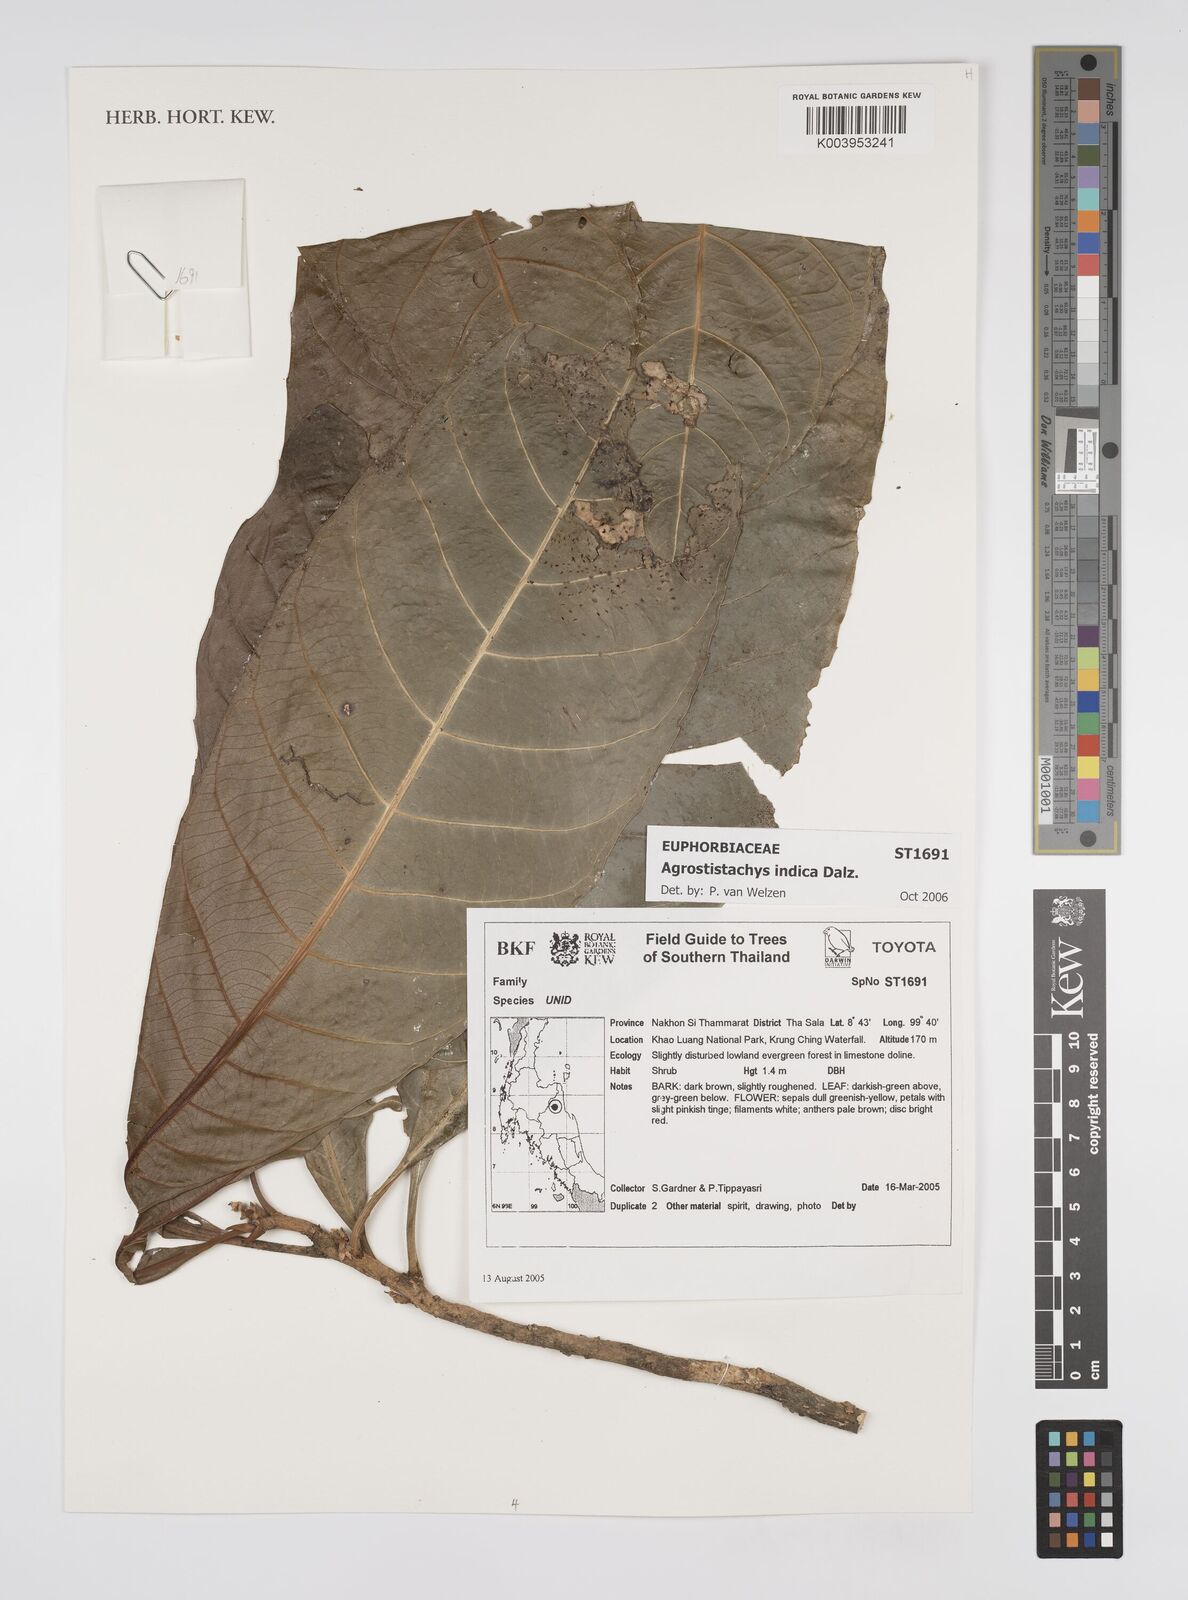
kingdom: Plantae
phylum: Tracheophyta
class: Magnoliopsida
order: Malpighiales
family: Euphorbiaceae
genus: Agrostistachys
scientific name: Agrostistachys indica
